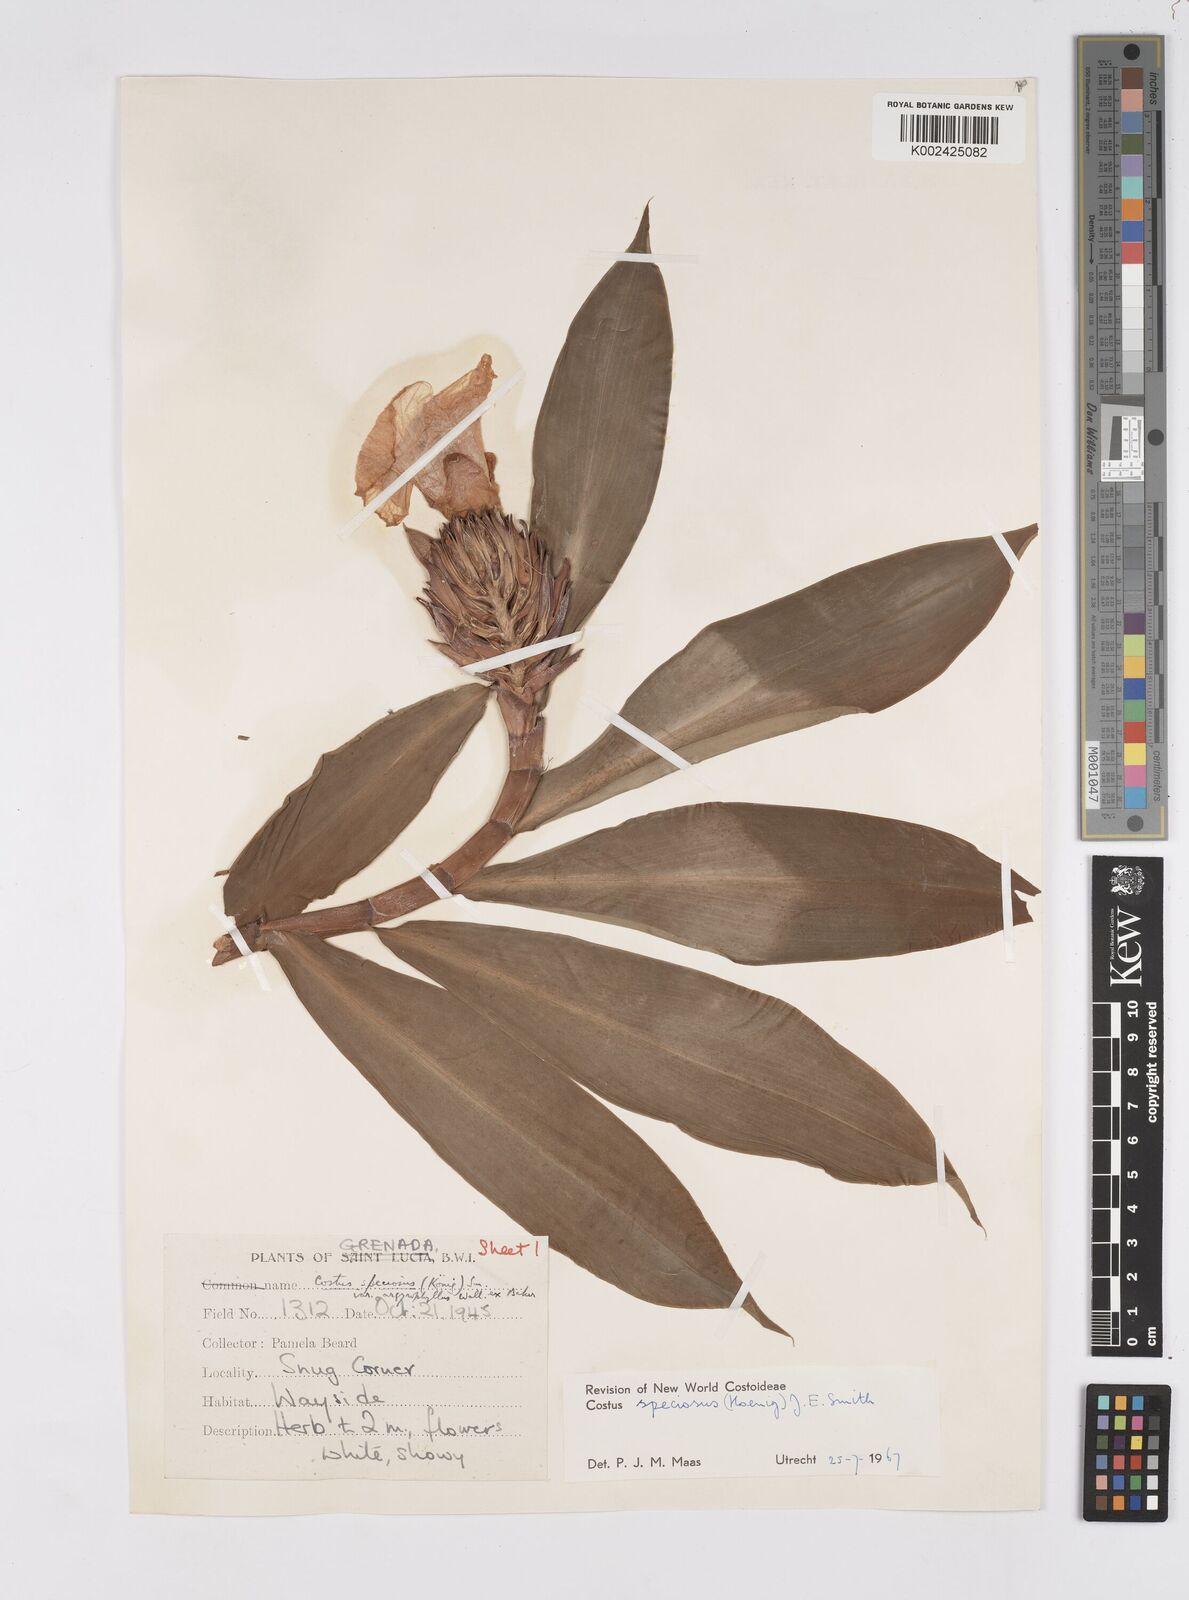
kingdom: Plantae
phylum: Tracheophyta
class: Liliopsida
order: Zingiberales
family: Costaceae
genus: Hellenia
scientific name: Hellenia speciosa
